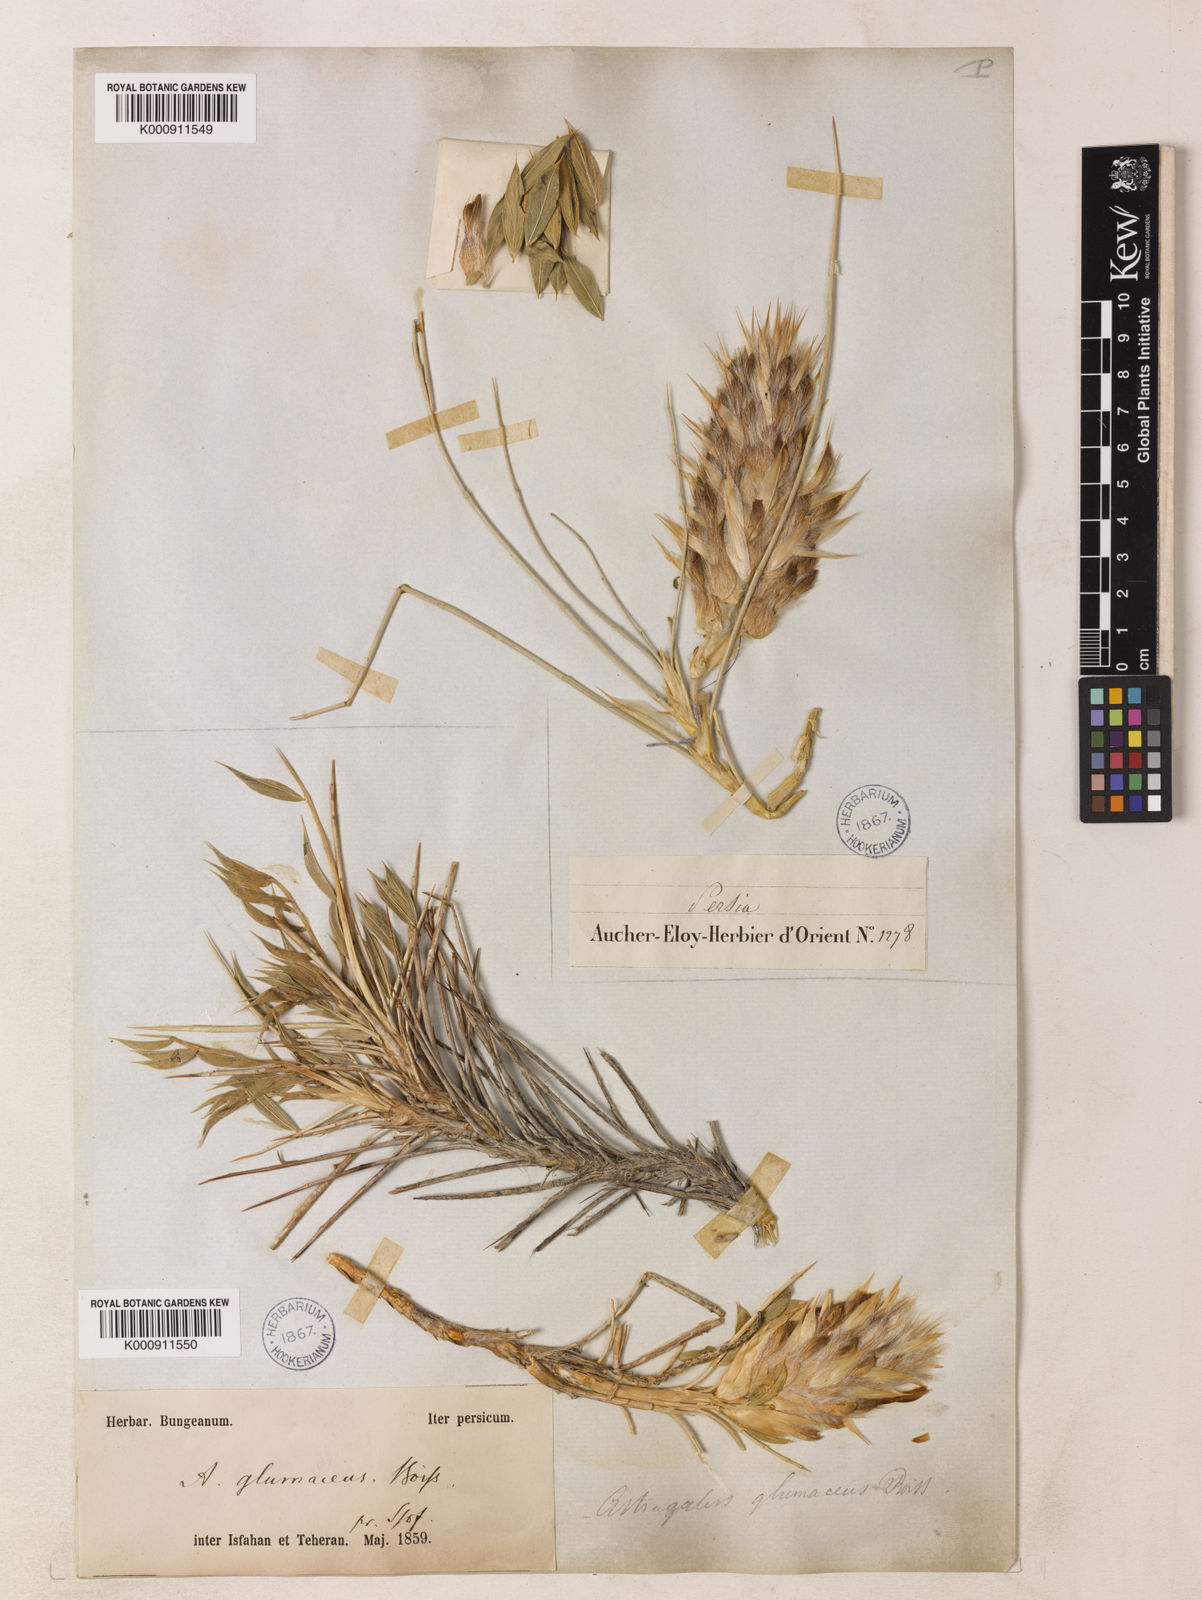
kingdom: Plantae
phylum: Tracheophyta
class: Magnoliopsida
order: Fabales
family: Fabaceae
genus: Astragalus
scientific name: Astragalus glumaceus
